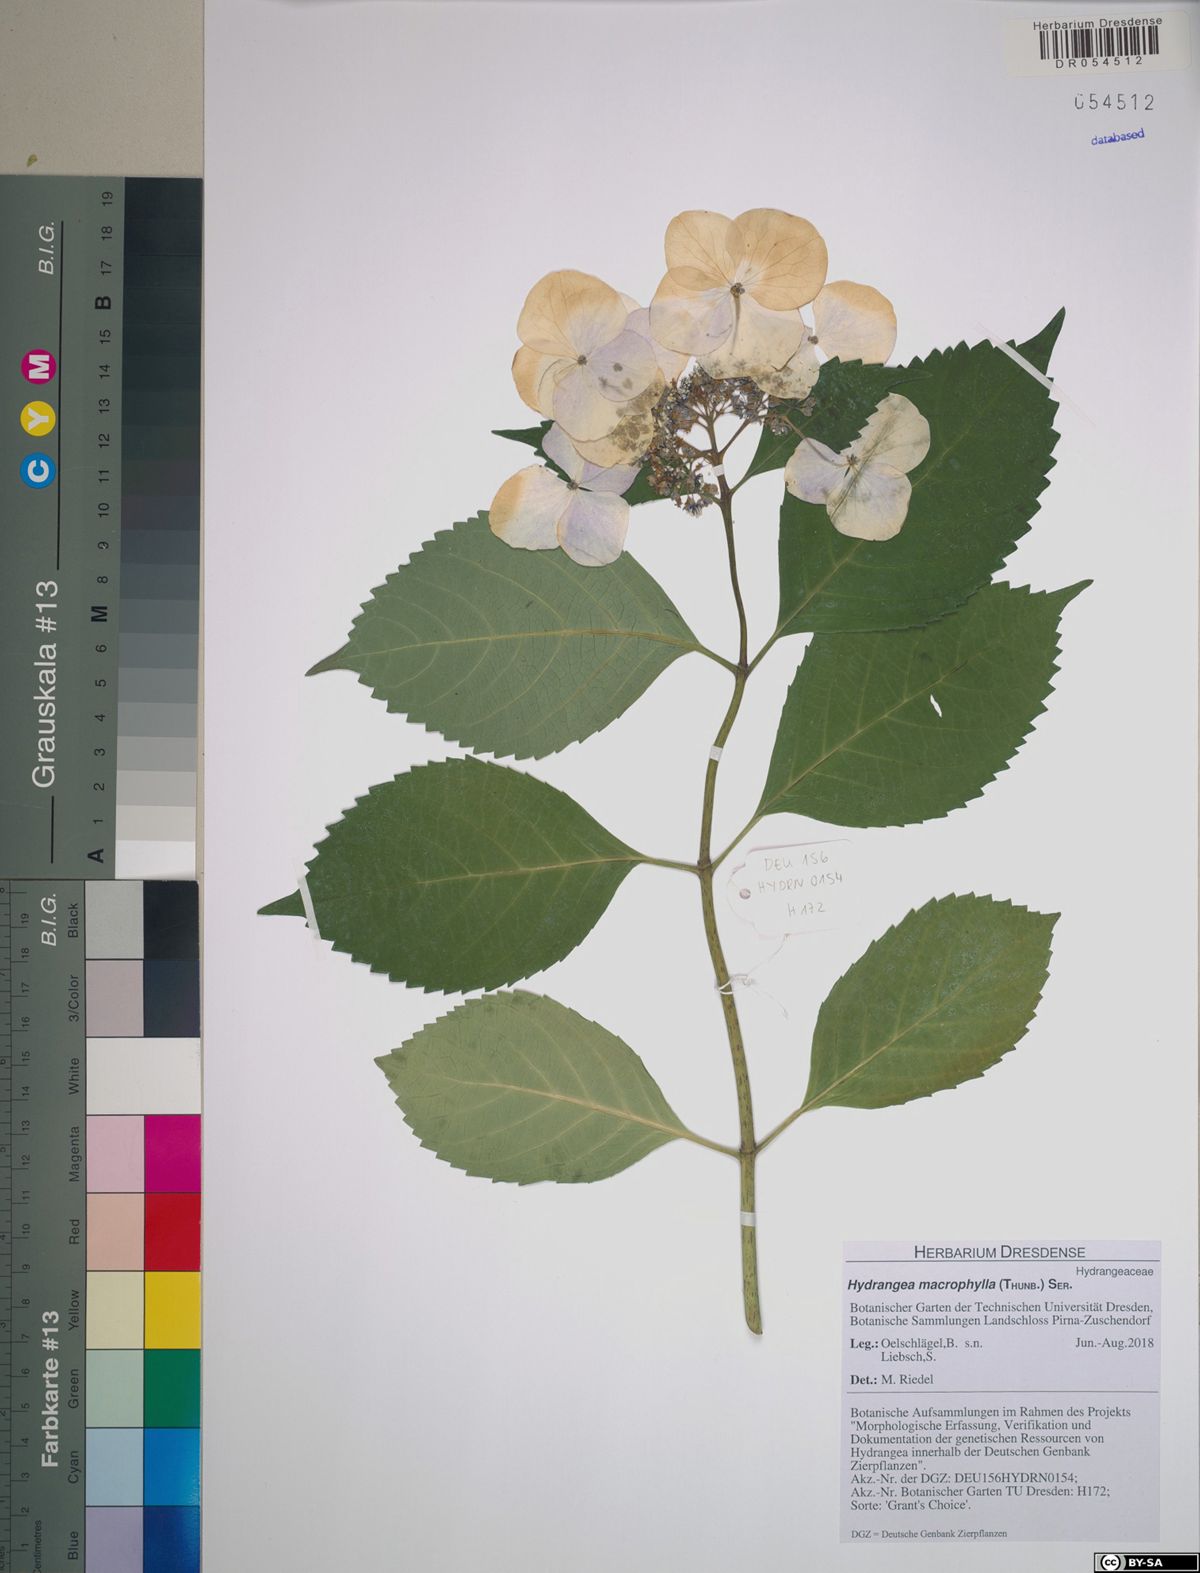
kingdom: Plantae
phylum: Tracheophyta
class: Magnoliopsida
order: Cornales
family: Hydrangeaceae
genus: Hydrangea
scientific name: Hydrangea macrophylla
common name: Hydrangea
